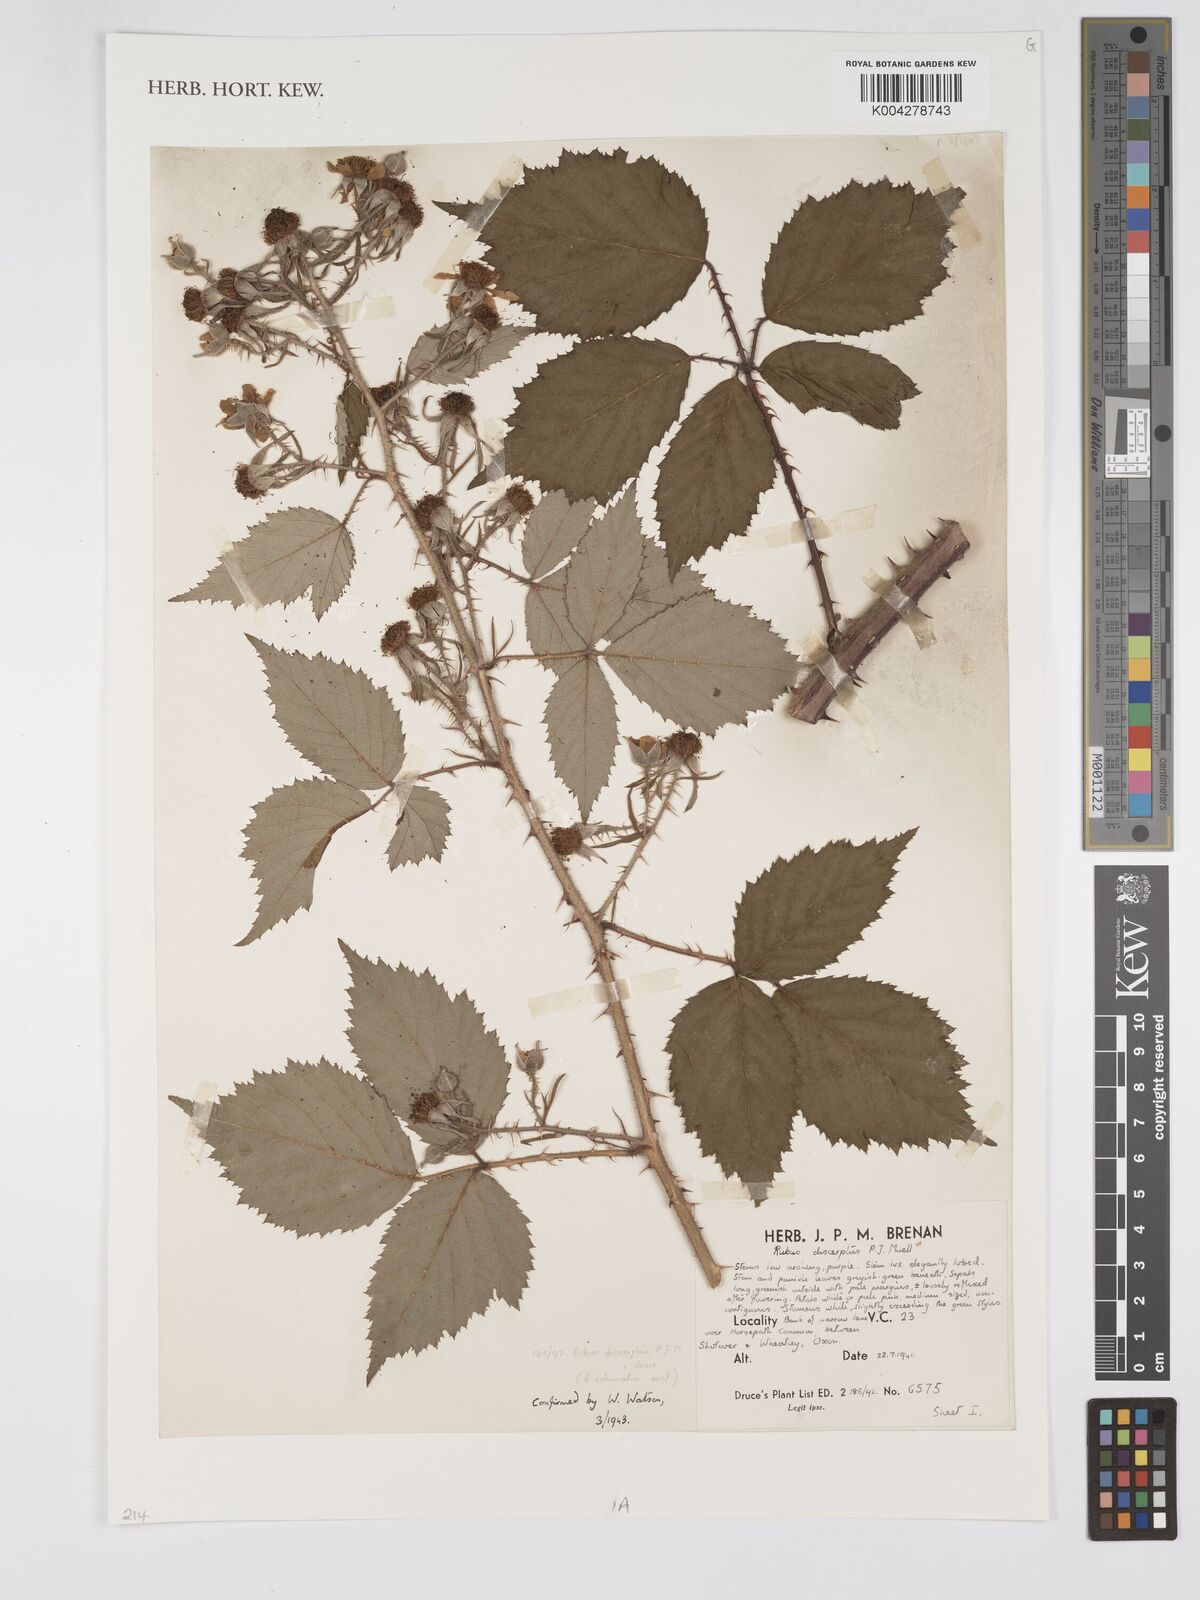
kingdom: Plantae
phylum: Tracheophyta
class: Magnoliopsida
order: Rosales
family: Rosaceae
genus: Rubus
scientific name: Rubus echinatus
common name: Echinate bramble
